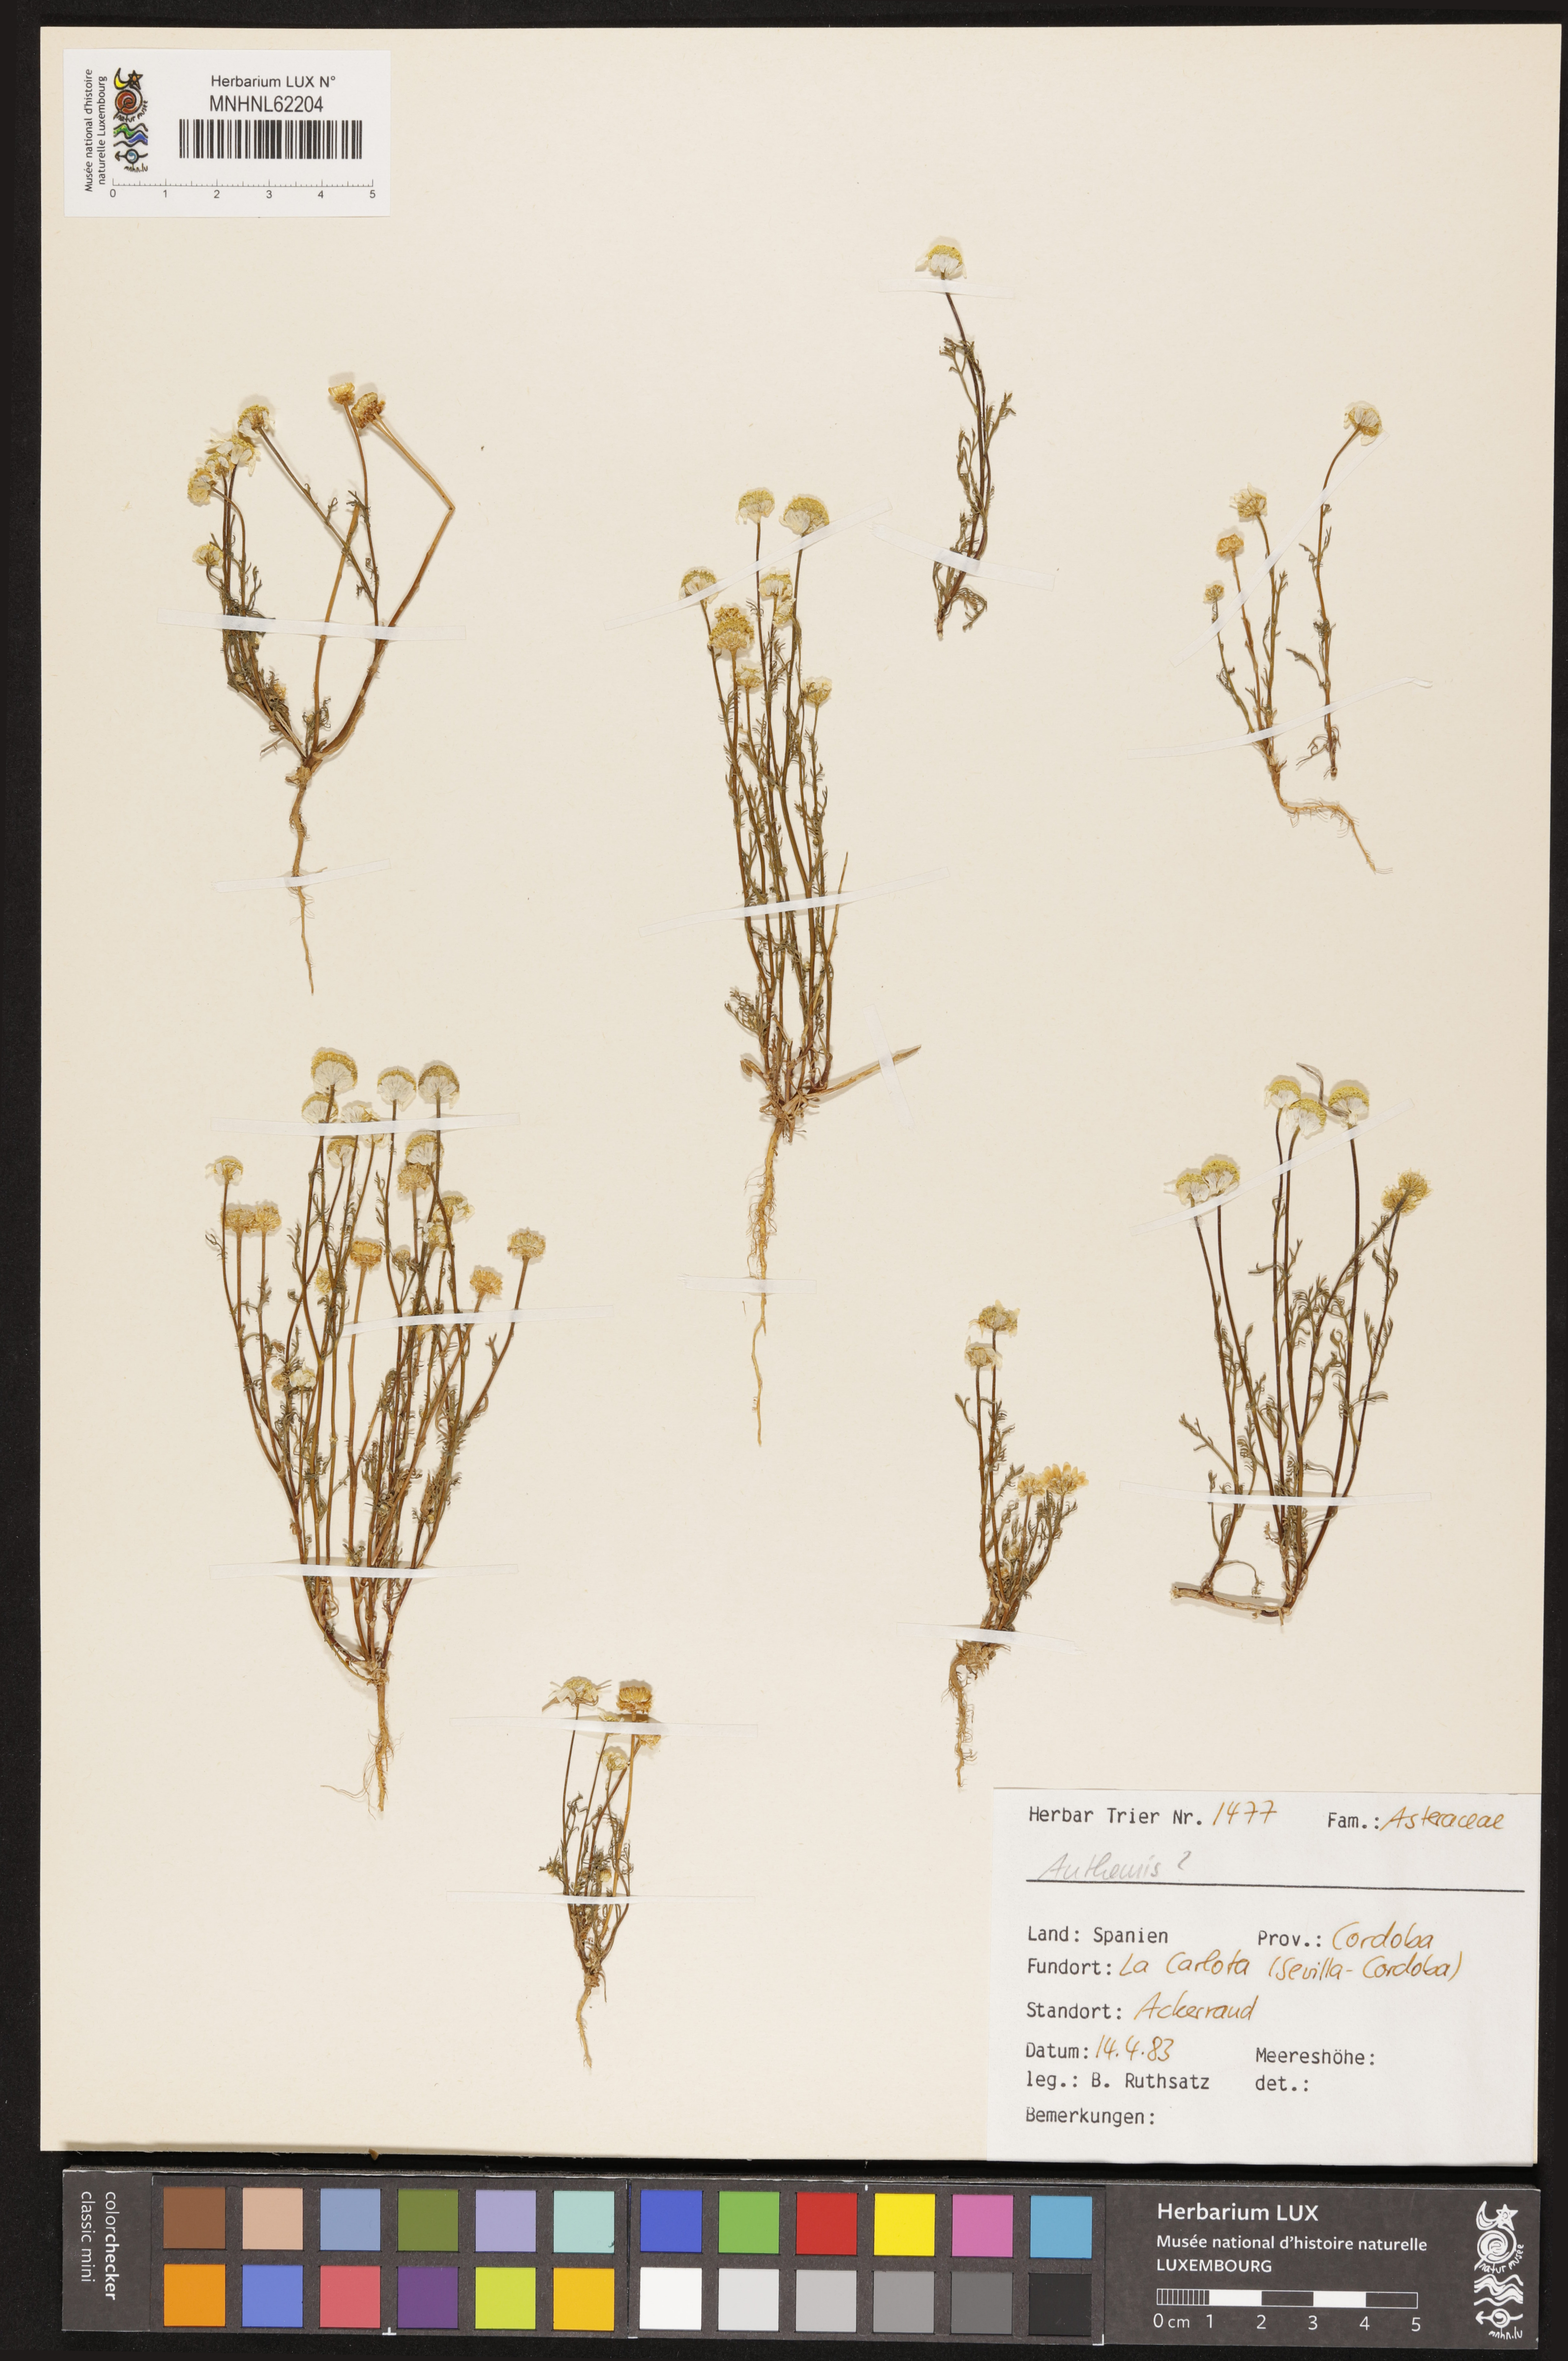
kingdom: Plantae
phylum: Tracheophyta
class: Magnoliopsida
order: Asterales
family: Asteraceae
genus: Anthemis
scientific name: Anthemis
